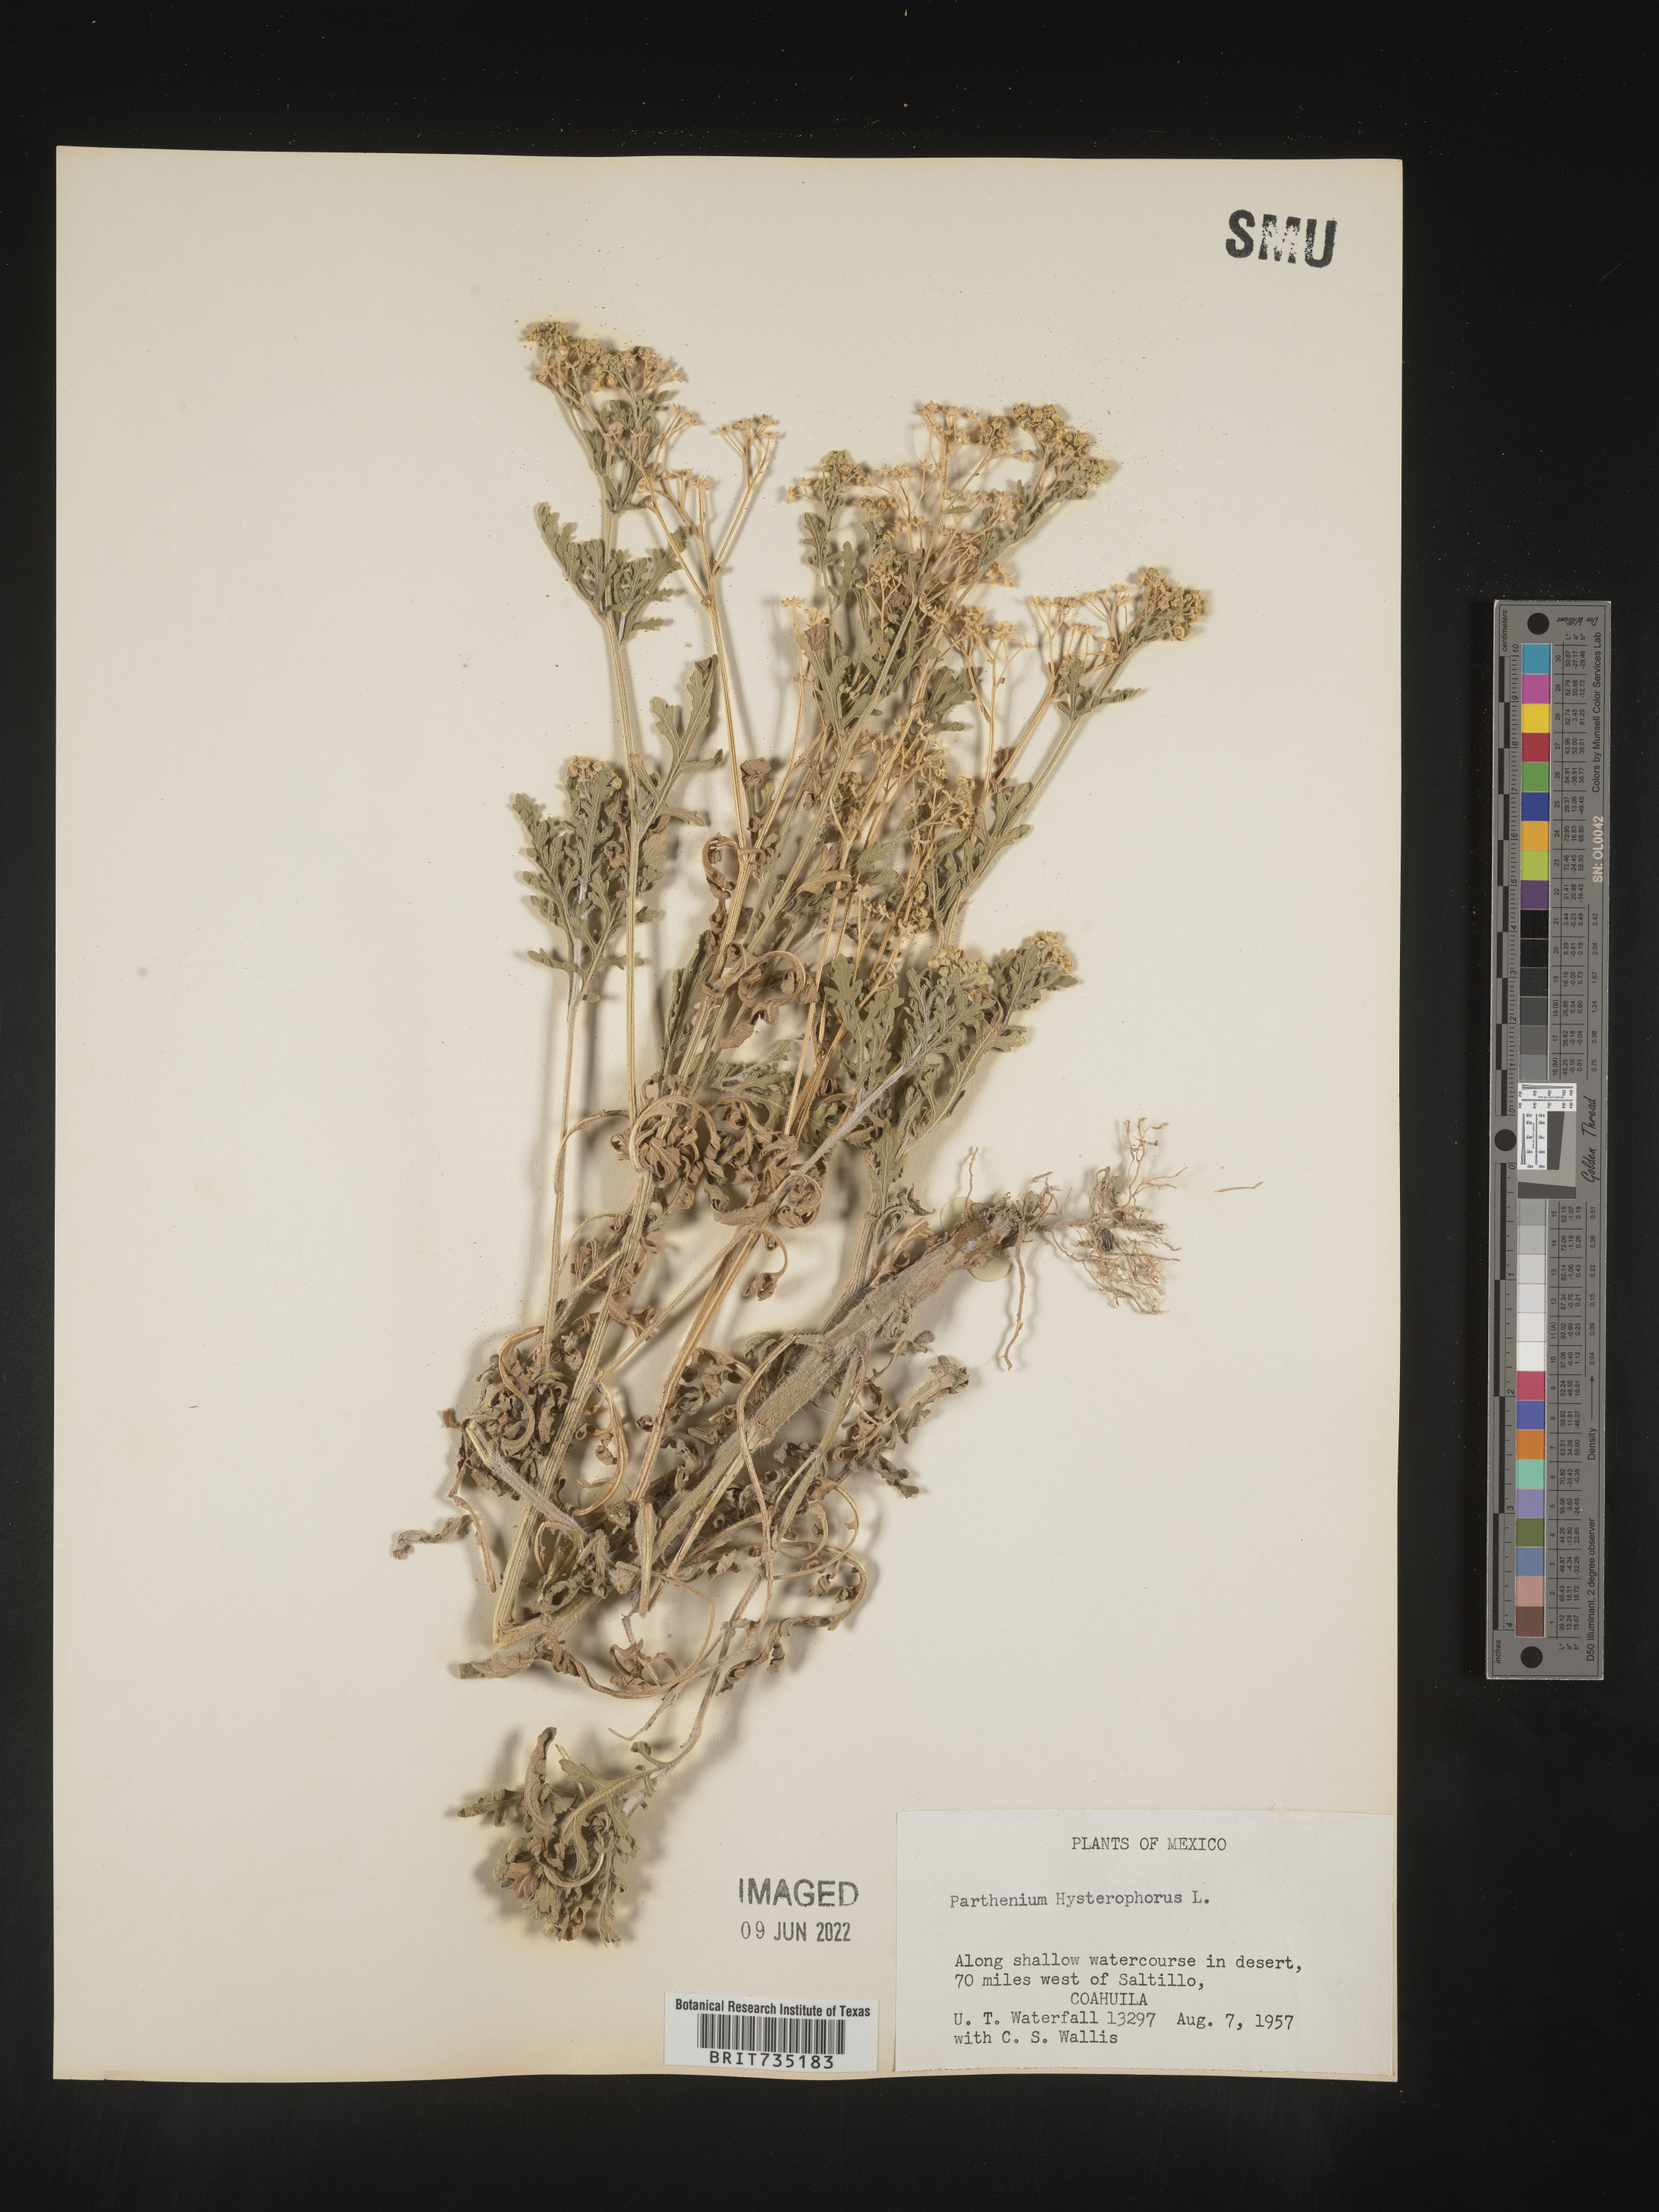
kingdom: Plantae
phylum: Tracheophyta
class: Magnoliopsida
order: Asterales
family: Asteraceae
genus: Parthenium
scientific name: Parthenium hysterophorus
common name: Santa maria feverfew
